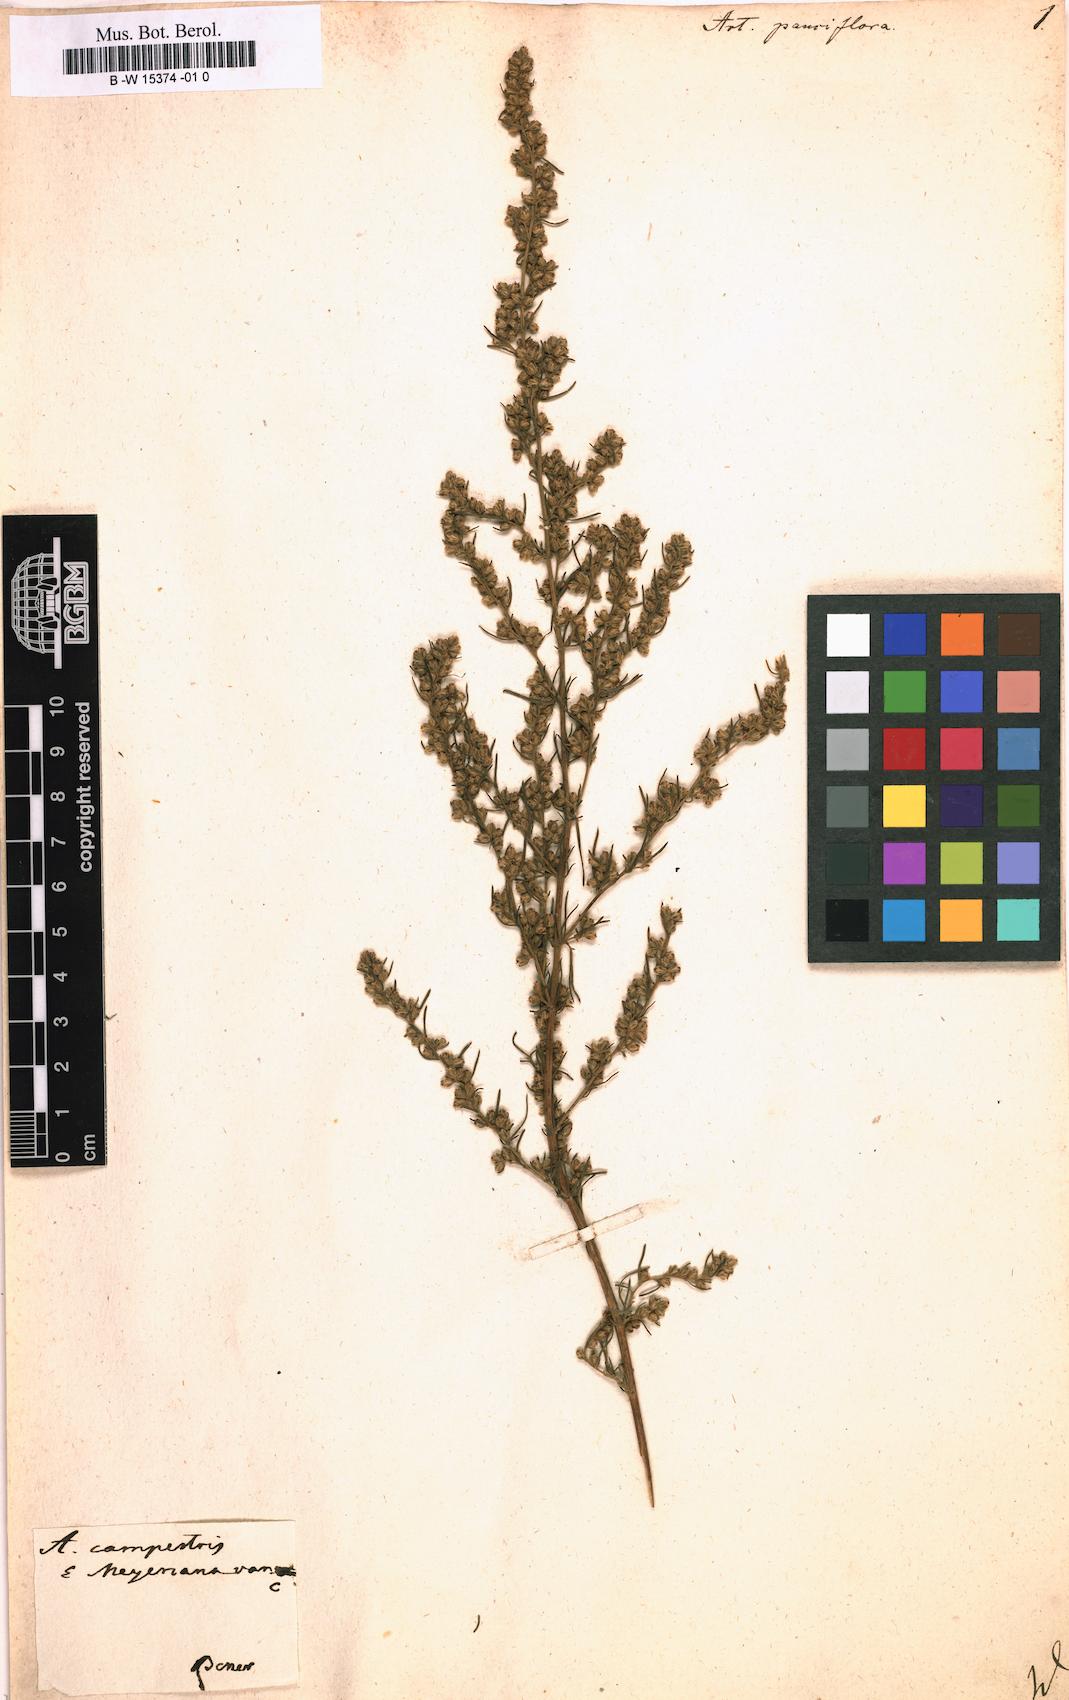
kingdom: Plantae
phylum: Tracheophyta
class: Magnoliopsida
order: Asterales
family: Asteraceae
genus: Artemisia
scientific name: Artemisia pauciflora
